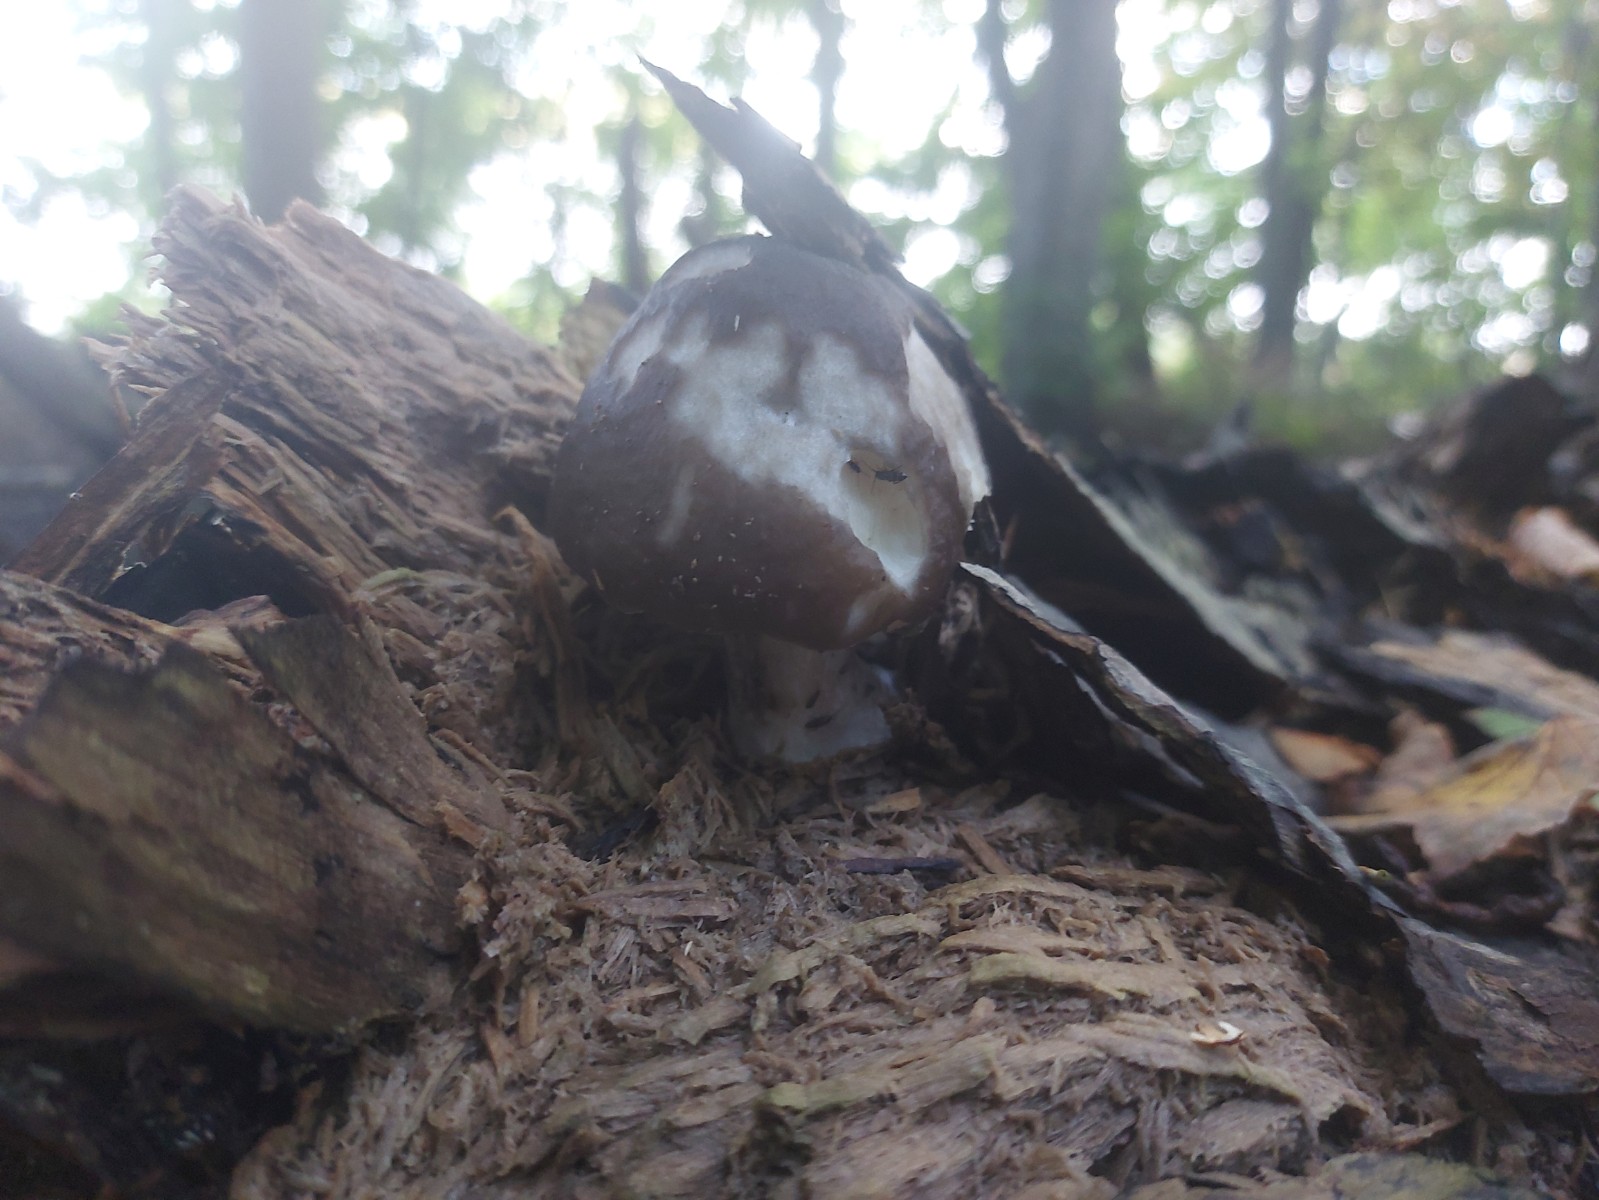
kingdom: Fungi
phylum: Basidiomycota
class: Agaricomycetes
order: Agaricales
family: Pluteaceae
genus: Pluteus
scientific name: Pluteus cervinus
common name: sodfarvet skærmhat
